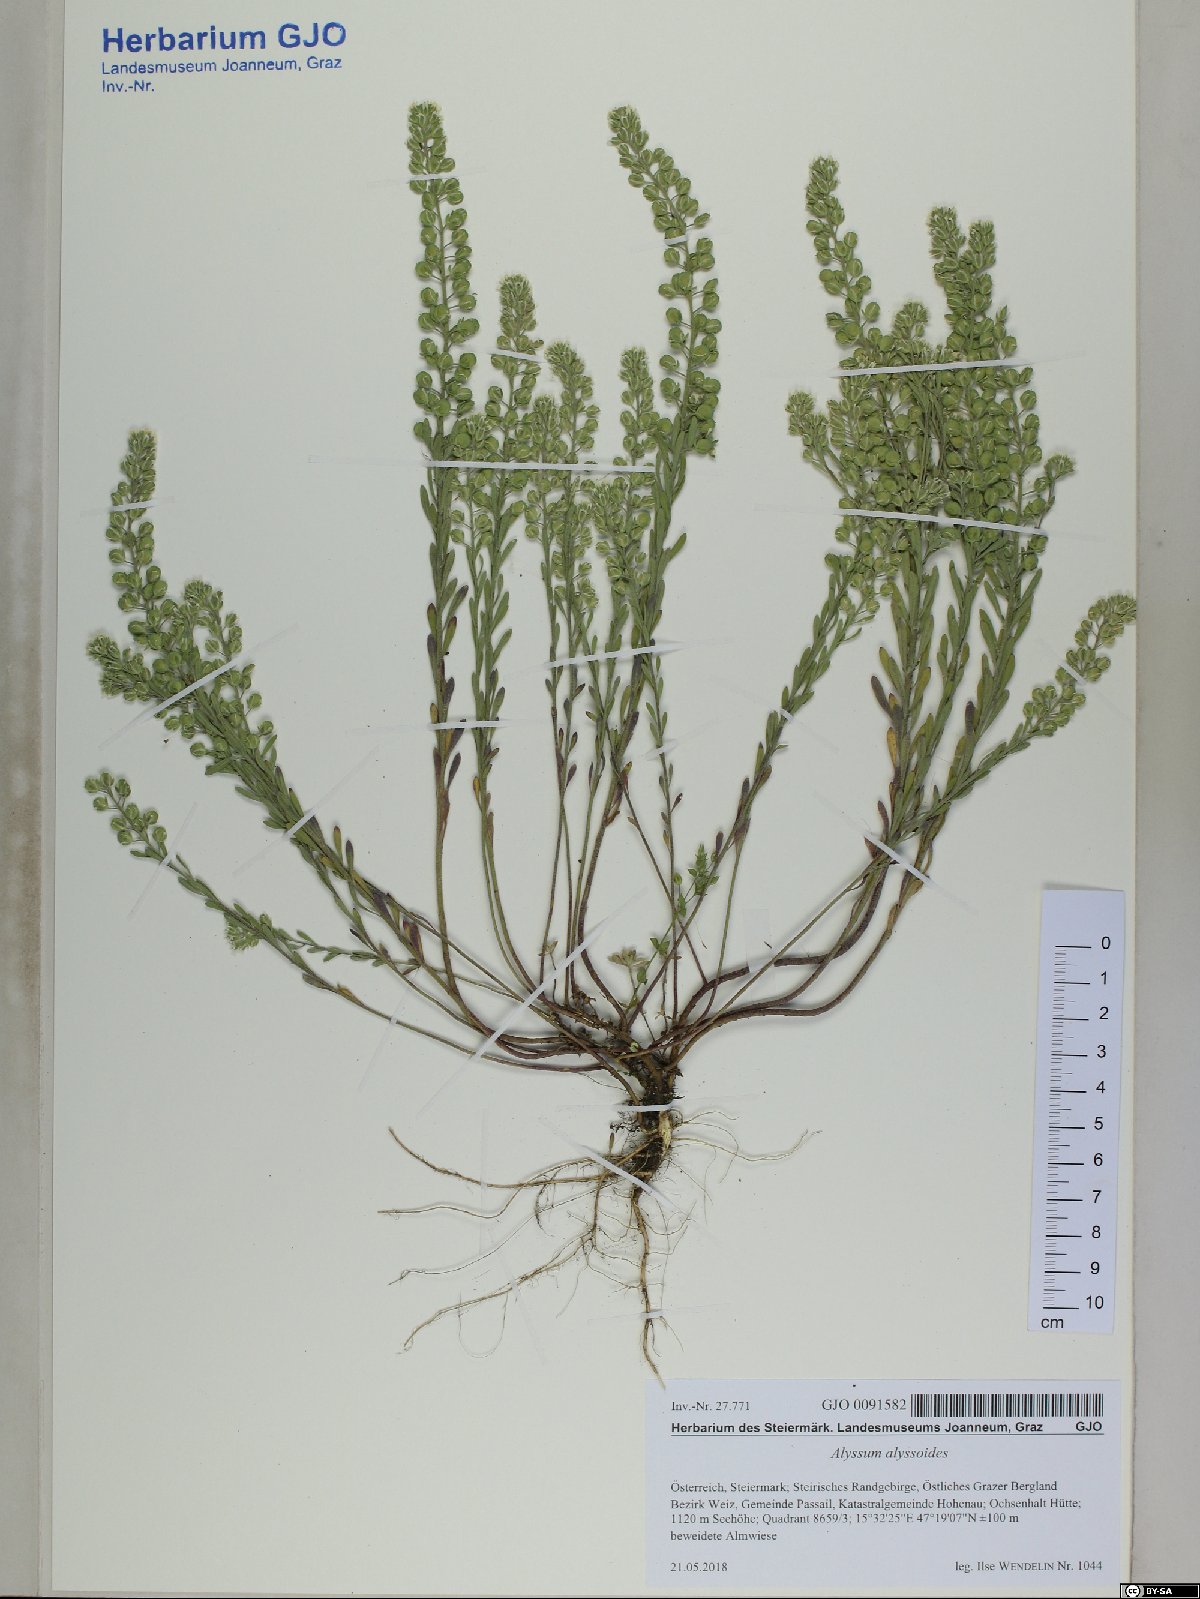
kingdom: Plantae
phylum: Tracheophyta
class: Magnoliopsida
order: Brassicales
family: Brassicaceae
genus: Alyssum
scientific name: Alyssum alyssoides
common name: Small alison
